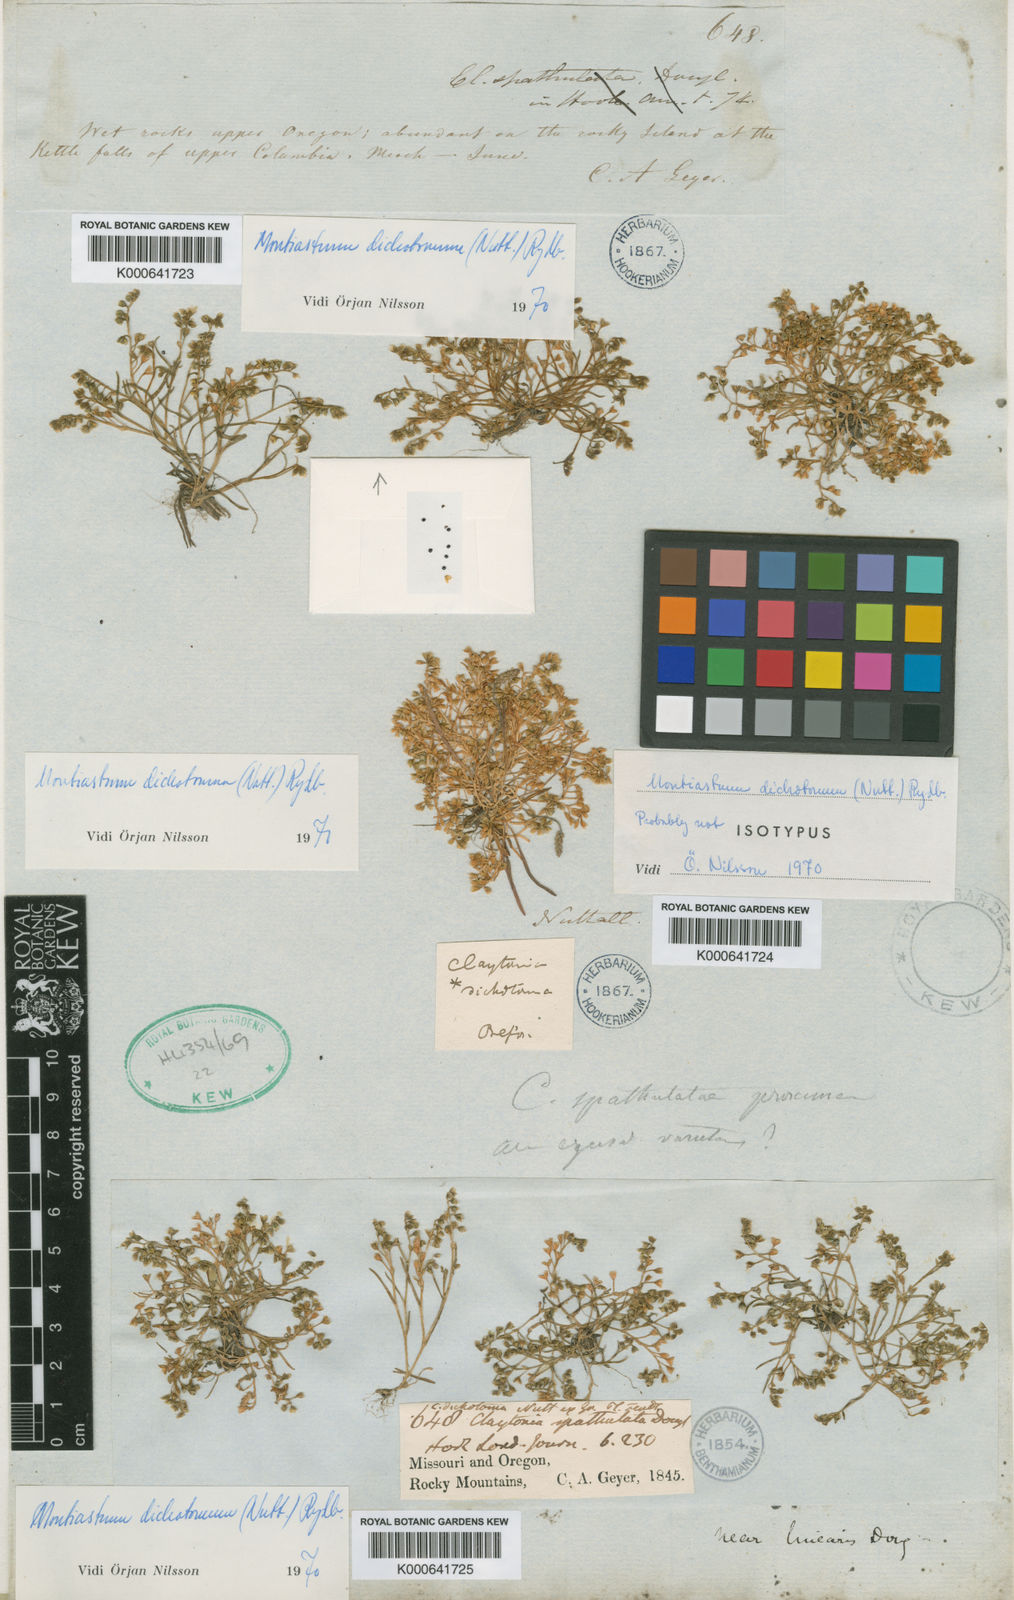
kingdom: Plantae
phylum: Tracheophyta
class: Magnoliopsida
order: Caryophyllales
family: Montiaceae
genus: Montia
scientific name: Montia dichotoma
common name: Dwarf miner's-lettuce
